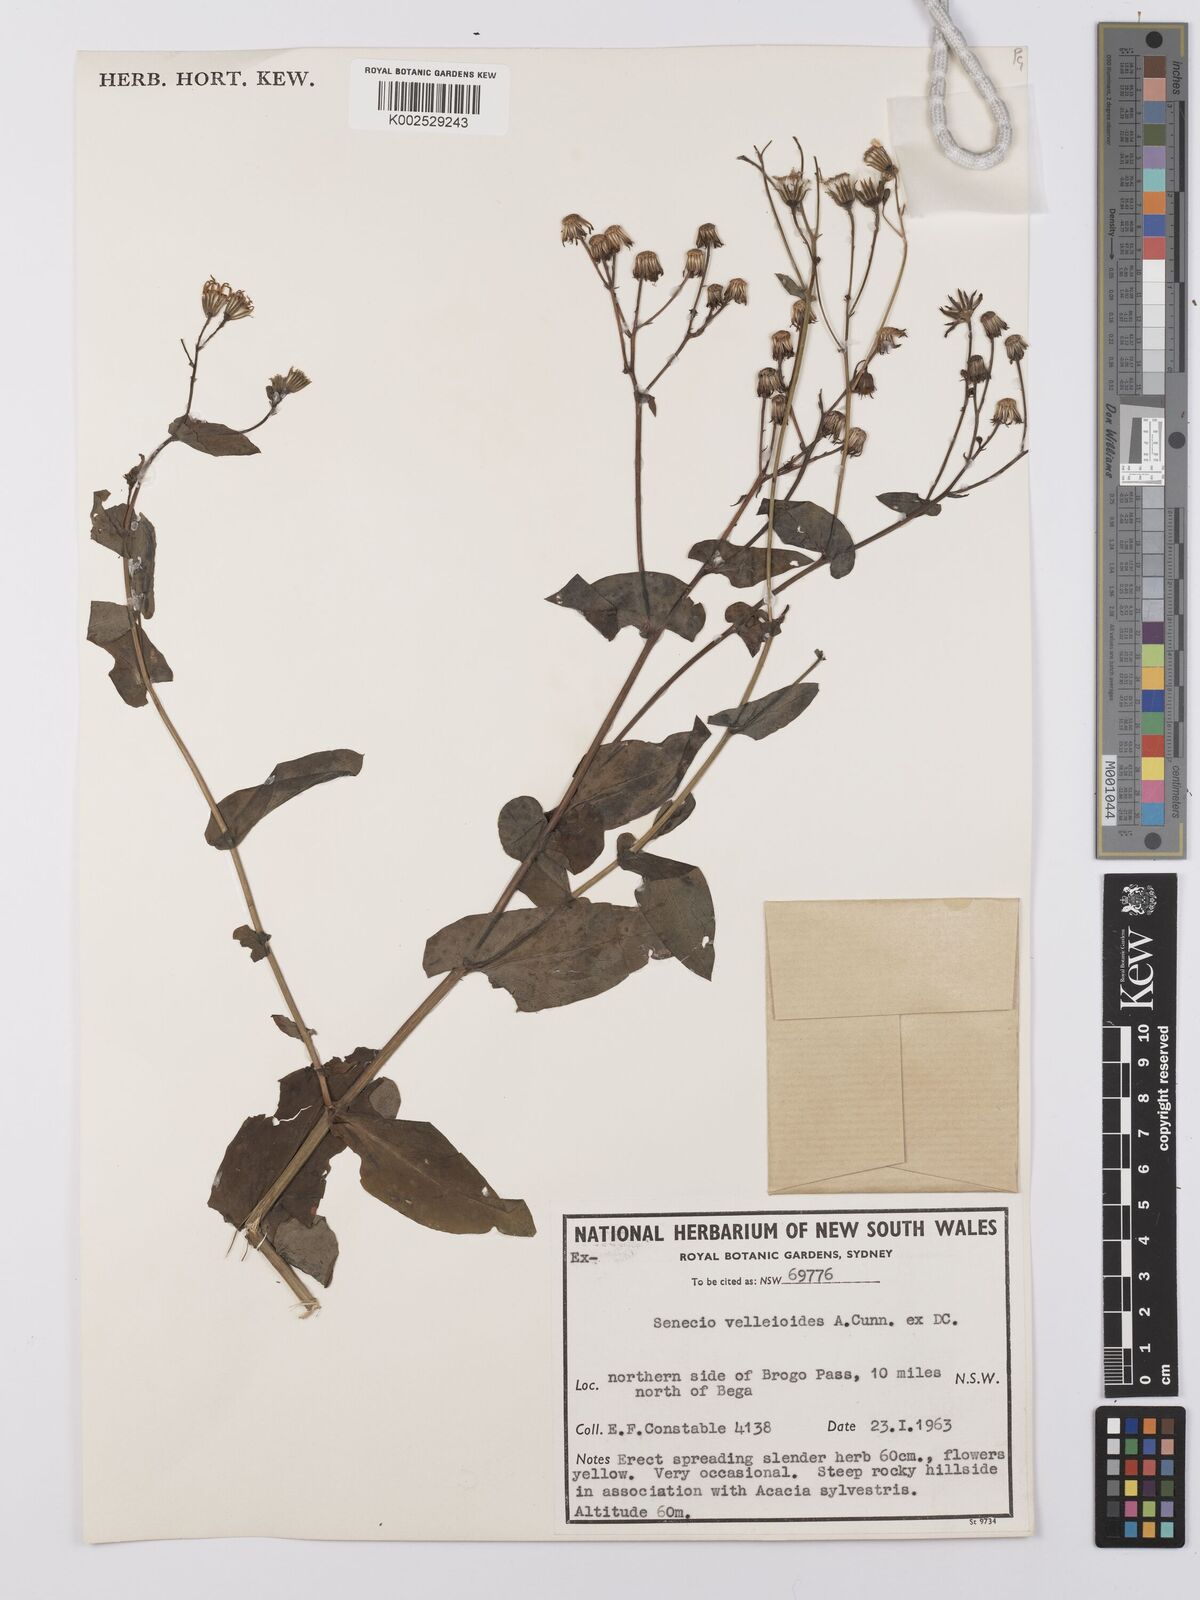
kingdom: Plantae
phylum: Tracheophyta
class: Magnoliopsida
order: Asterales
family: Asteraceae
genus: Lordhowea
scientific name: Lordhowea velleioides
